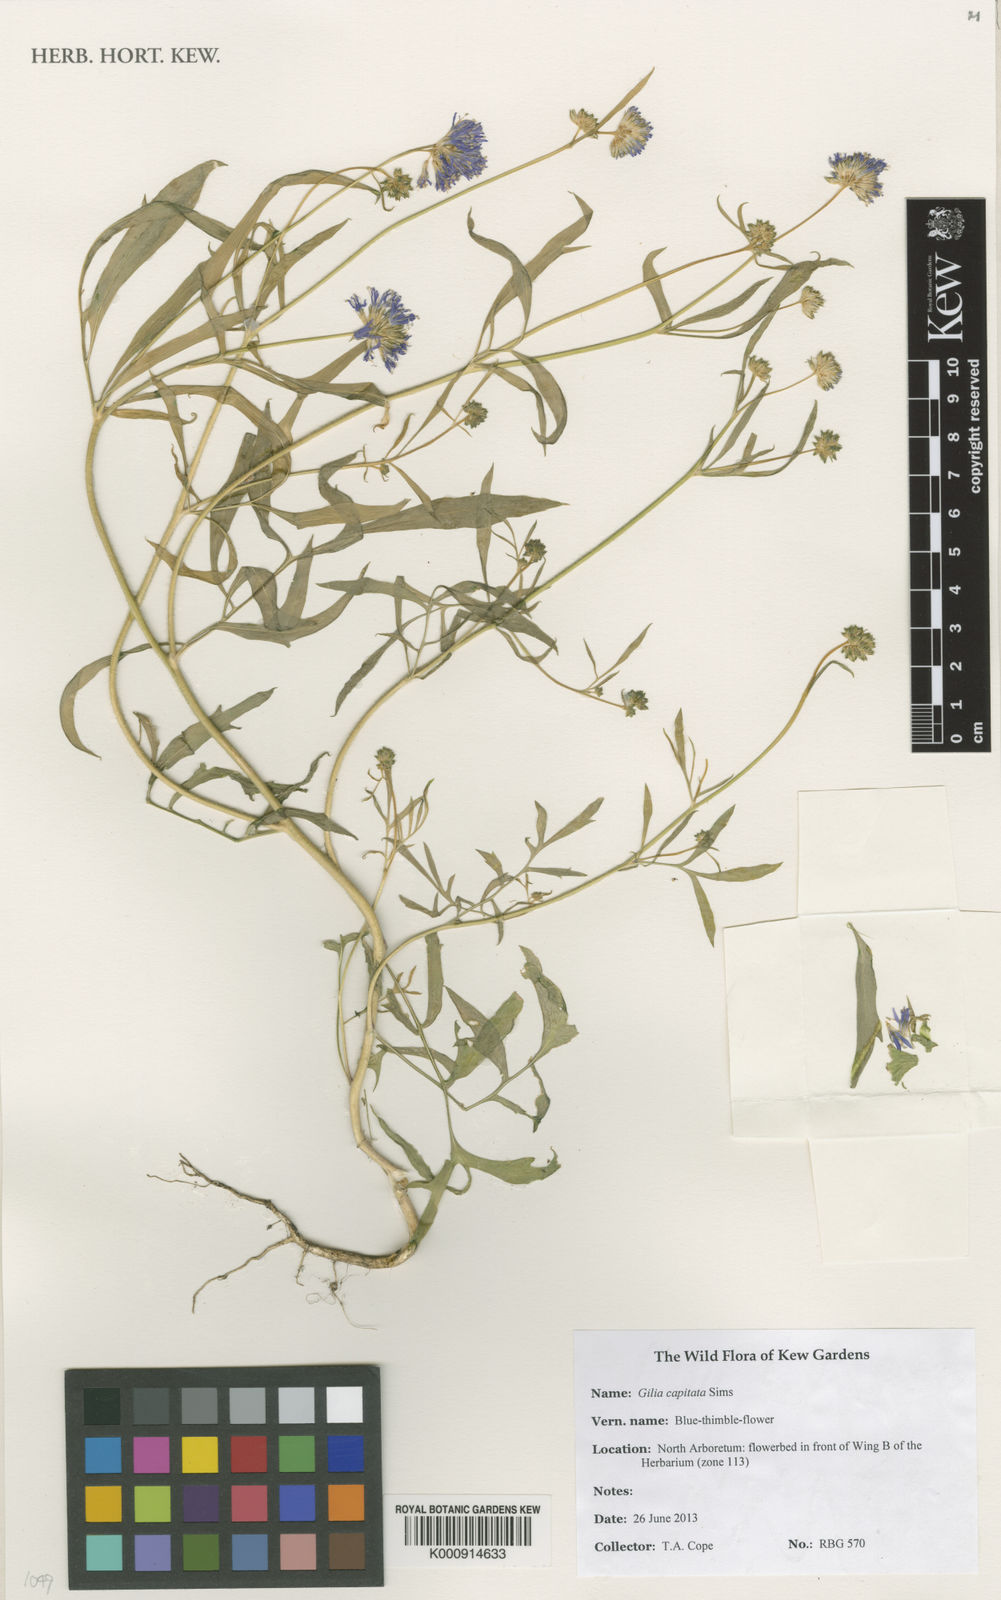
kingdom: Plantae
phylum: Tracheophyta
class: Magnoliopsida
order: Ericales
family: Polemoniaceae
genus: Gilia
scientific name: Gilia capitata
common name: Bluehead gilia
